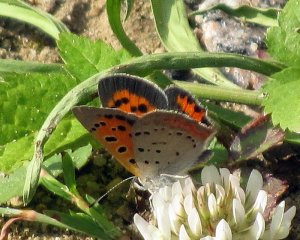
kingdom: Animalia
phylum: Arthropoda
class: Insecta
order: Lepidoptera
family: Lycaenidae
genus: Lycaena
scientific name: Lycaena phlaeas
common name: American Copper
